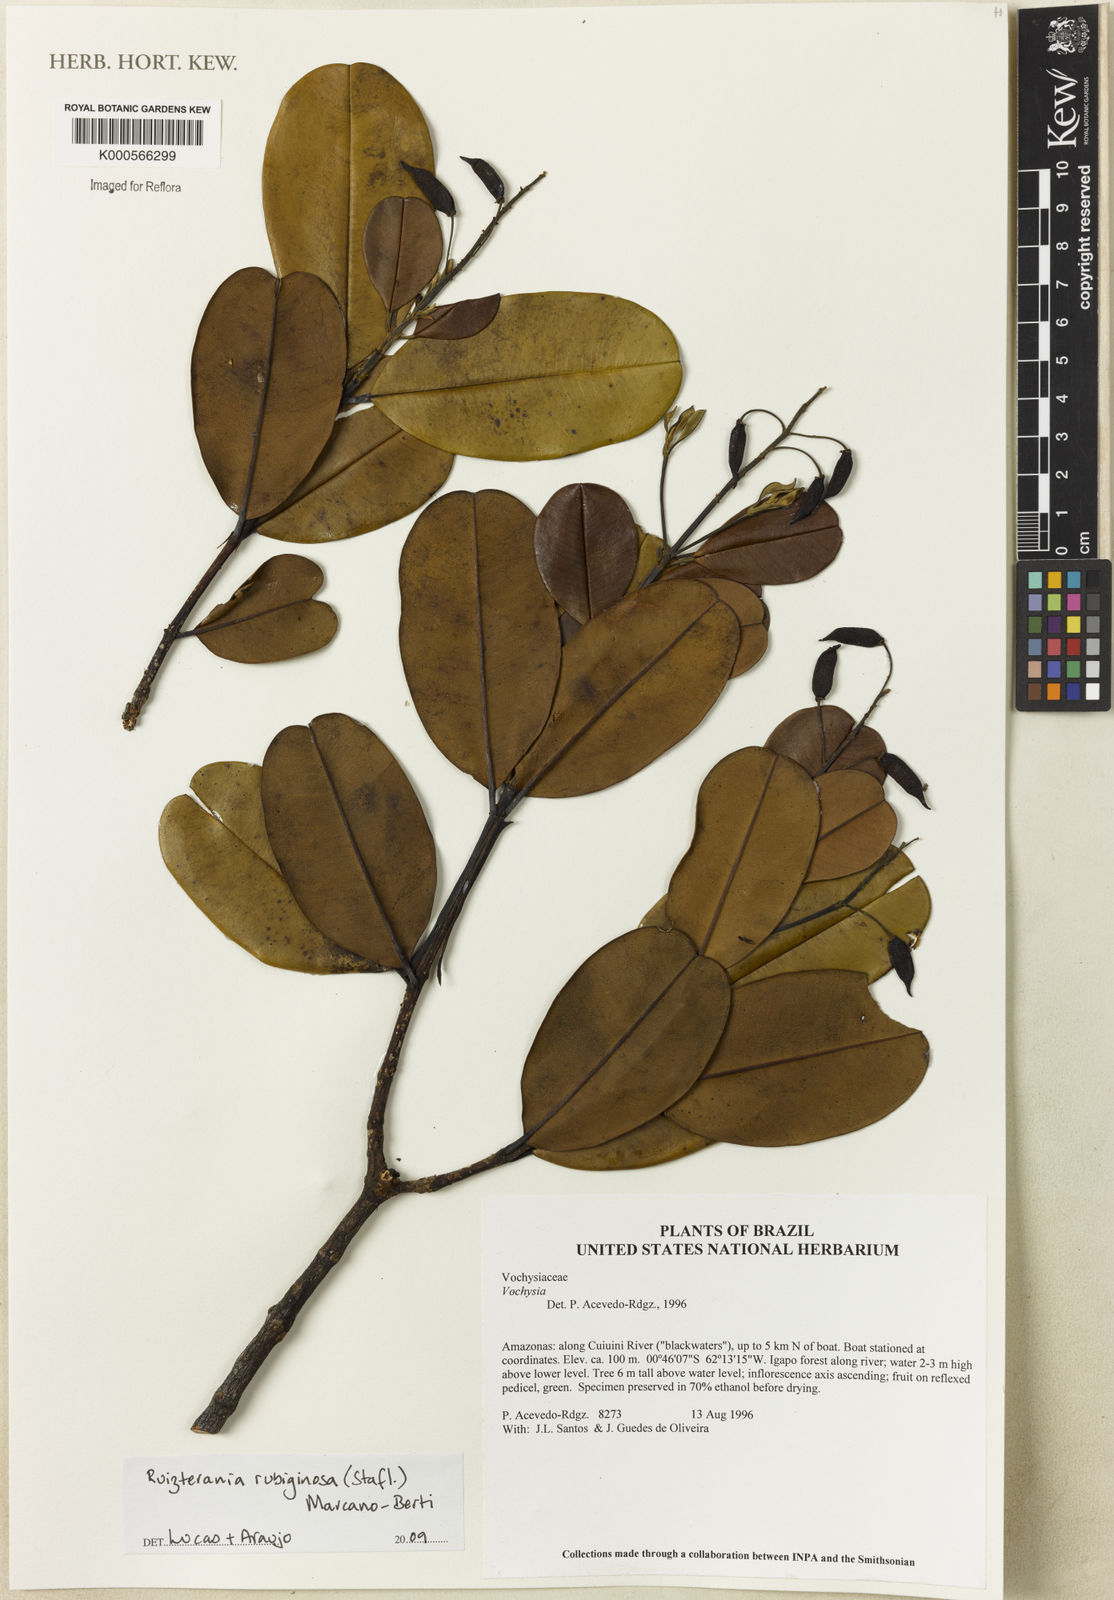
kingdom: Plantae
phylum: Tracheophyta
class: Magnoliopsida
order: Myrtales
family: Vochysiaceae
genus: Ruizterania
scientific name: Ruizterania ferruginea
